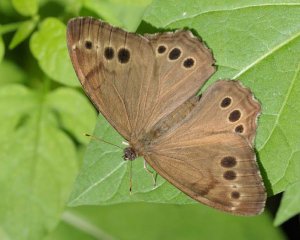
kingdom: Animalia
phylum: Arthropoda
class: Insecta
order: Lepidoptera
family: Nymphalidae
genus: Lethe
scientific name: Lethe anthedon
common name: Northern Pearly-Eye
